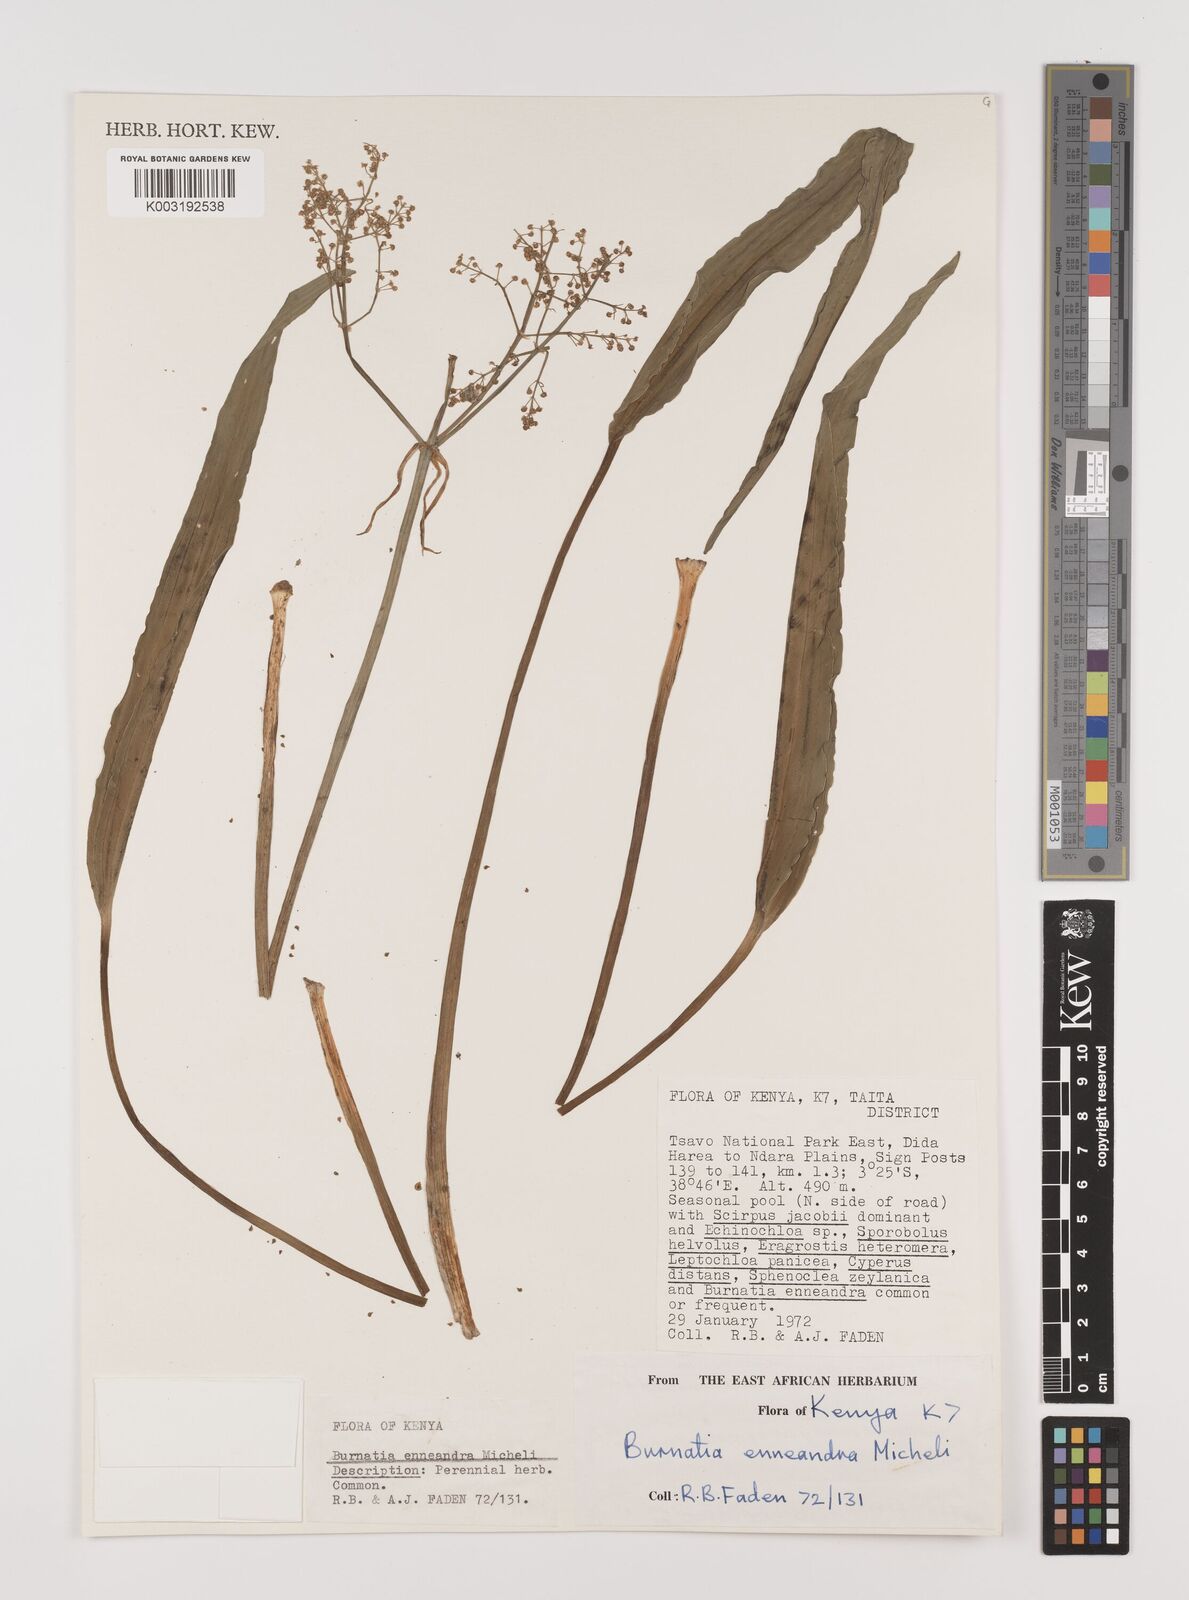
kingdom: Plantae
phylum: Tracheophyta
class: Liliopsida
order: Alismatales
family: Alismataceae
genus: Burnatia
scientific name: Burnatia enneandra
